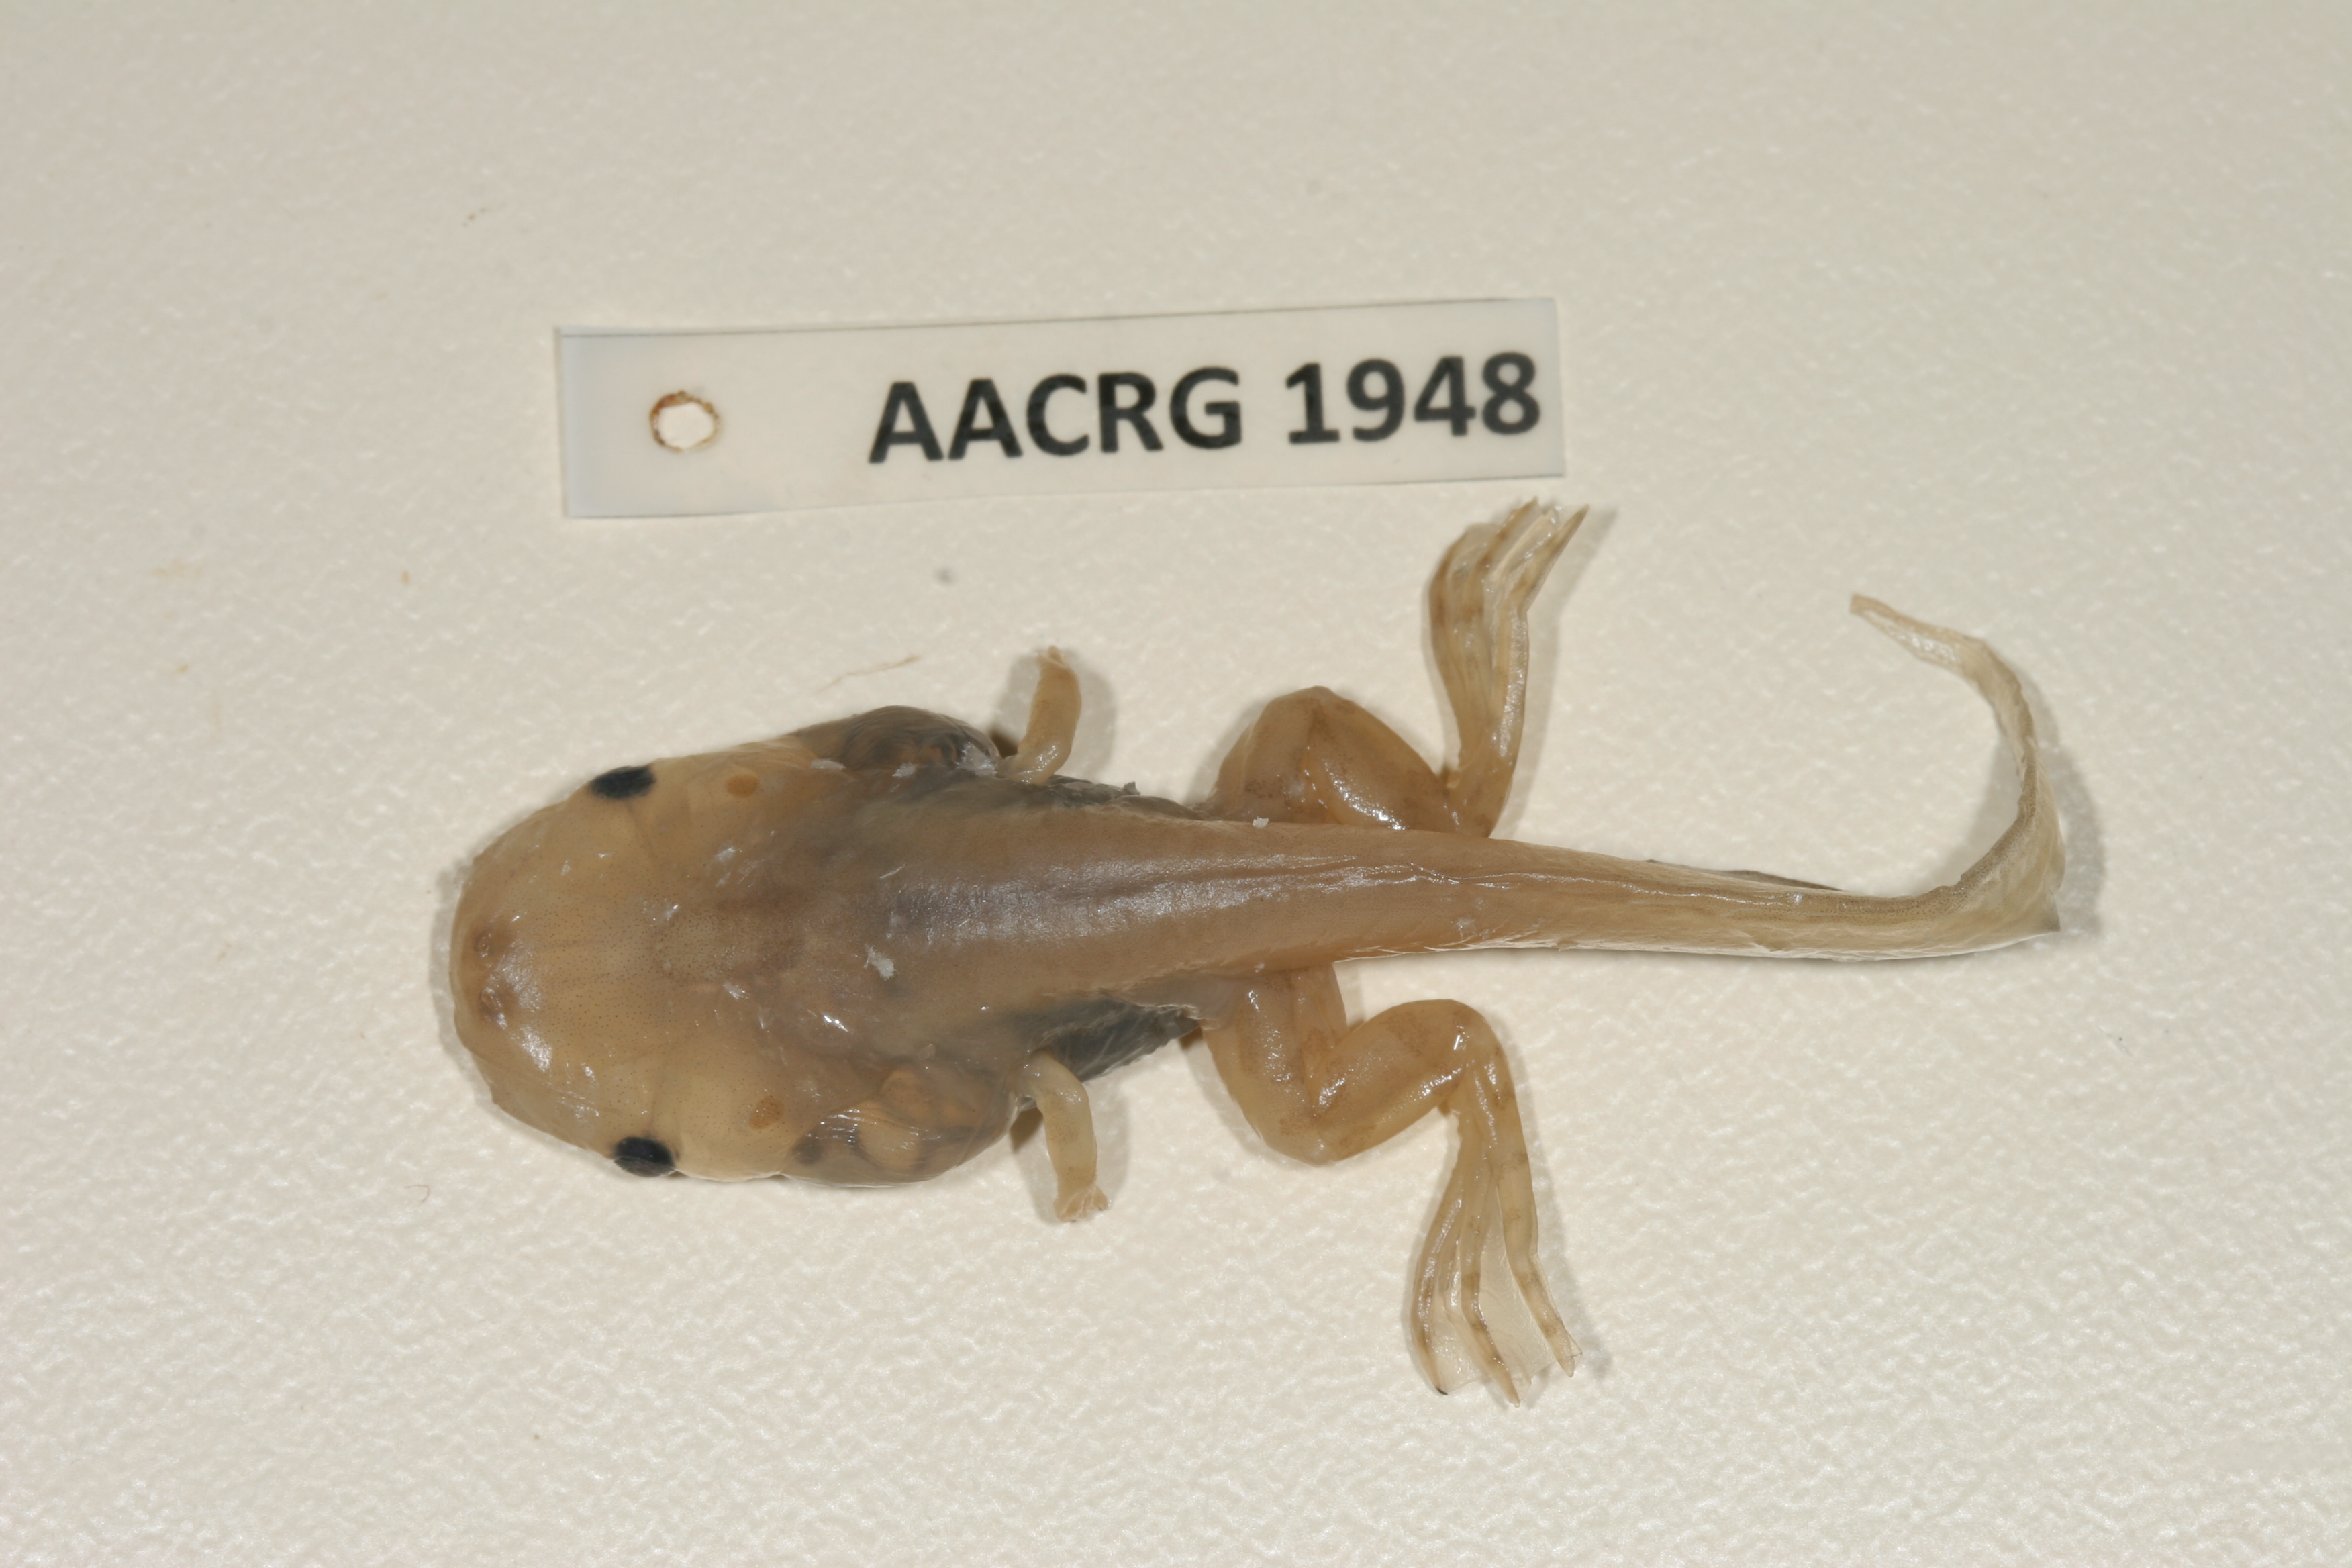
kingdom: Animalia
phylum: Chordata
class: Amphibia
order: Anura
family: Pipidae
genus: Xenopus
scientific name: Xenopus muelleri
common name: Muller's clawed frog
